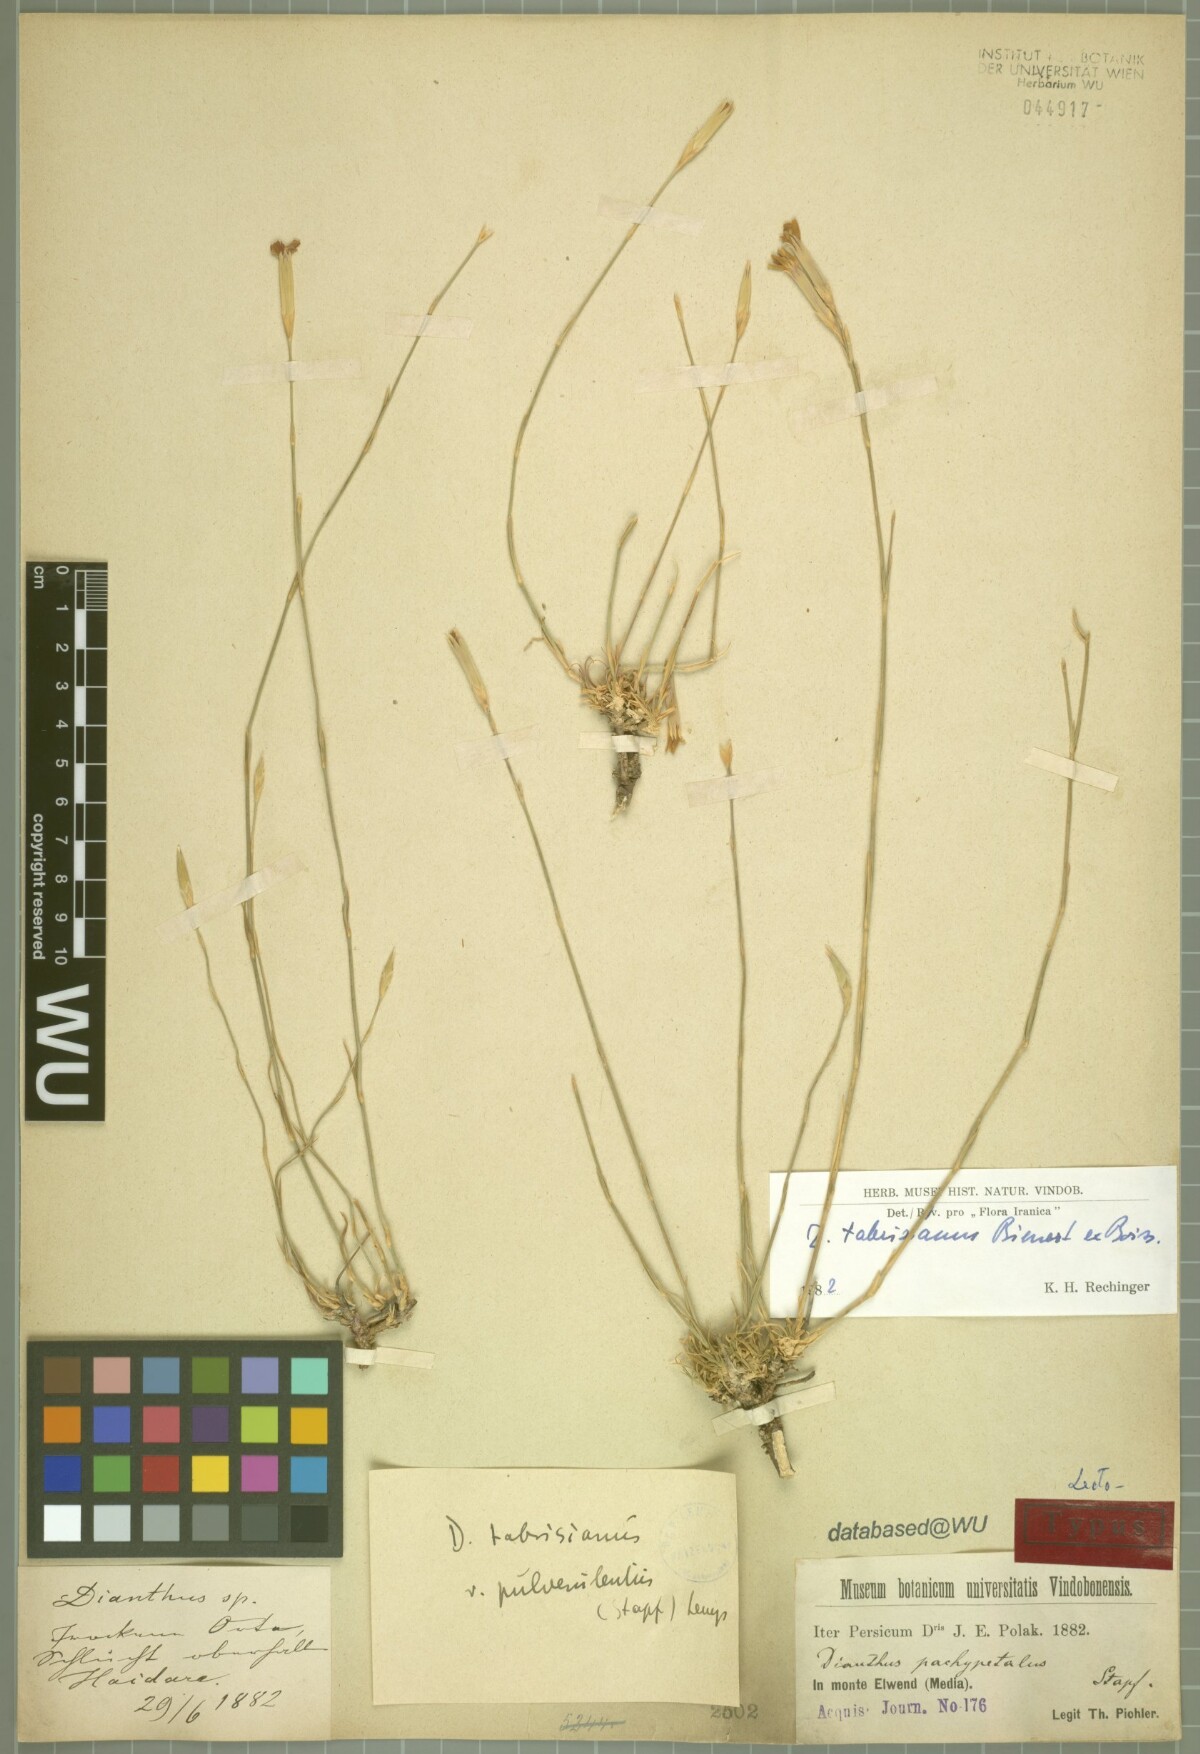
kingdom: Plantae
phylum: Tracheophyta
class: Magnoliopsida
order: Caryophyllales
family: Caryophyllaceae
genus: Dianthus
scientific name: Dianthus tabrisianus
